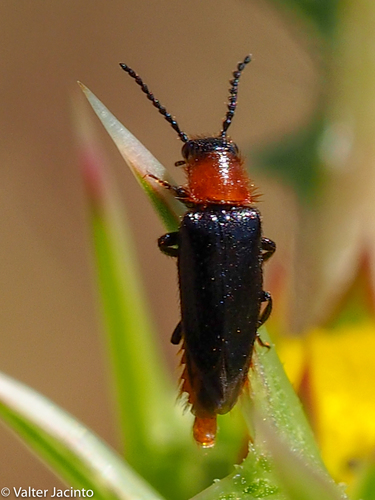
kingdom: Animalia
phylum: Arthropoda
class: Insecta
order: Coleoptera
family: Drilidae
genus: Malacogaster
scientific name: Malacogaster nigripes
